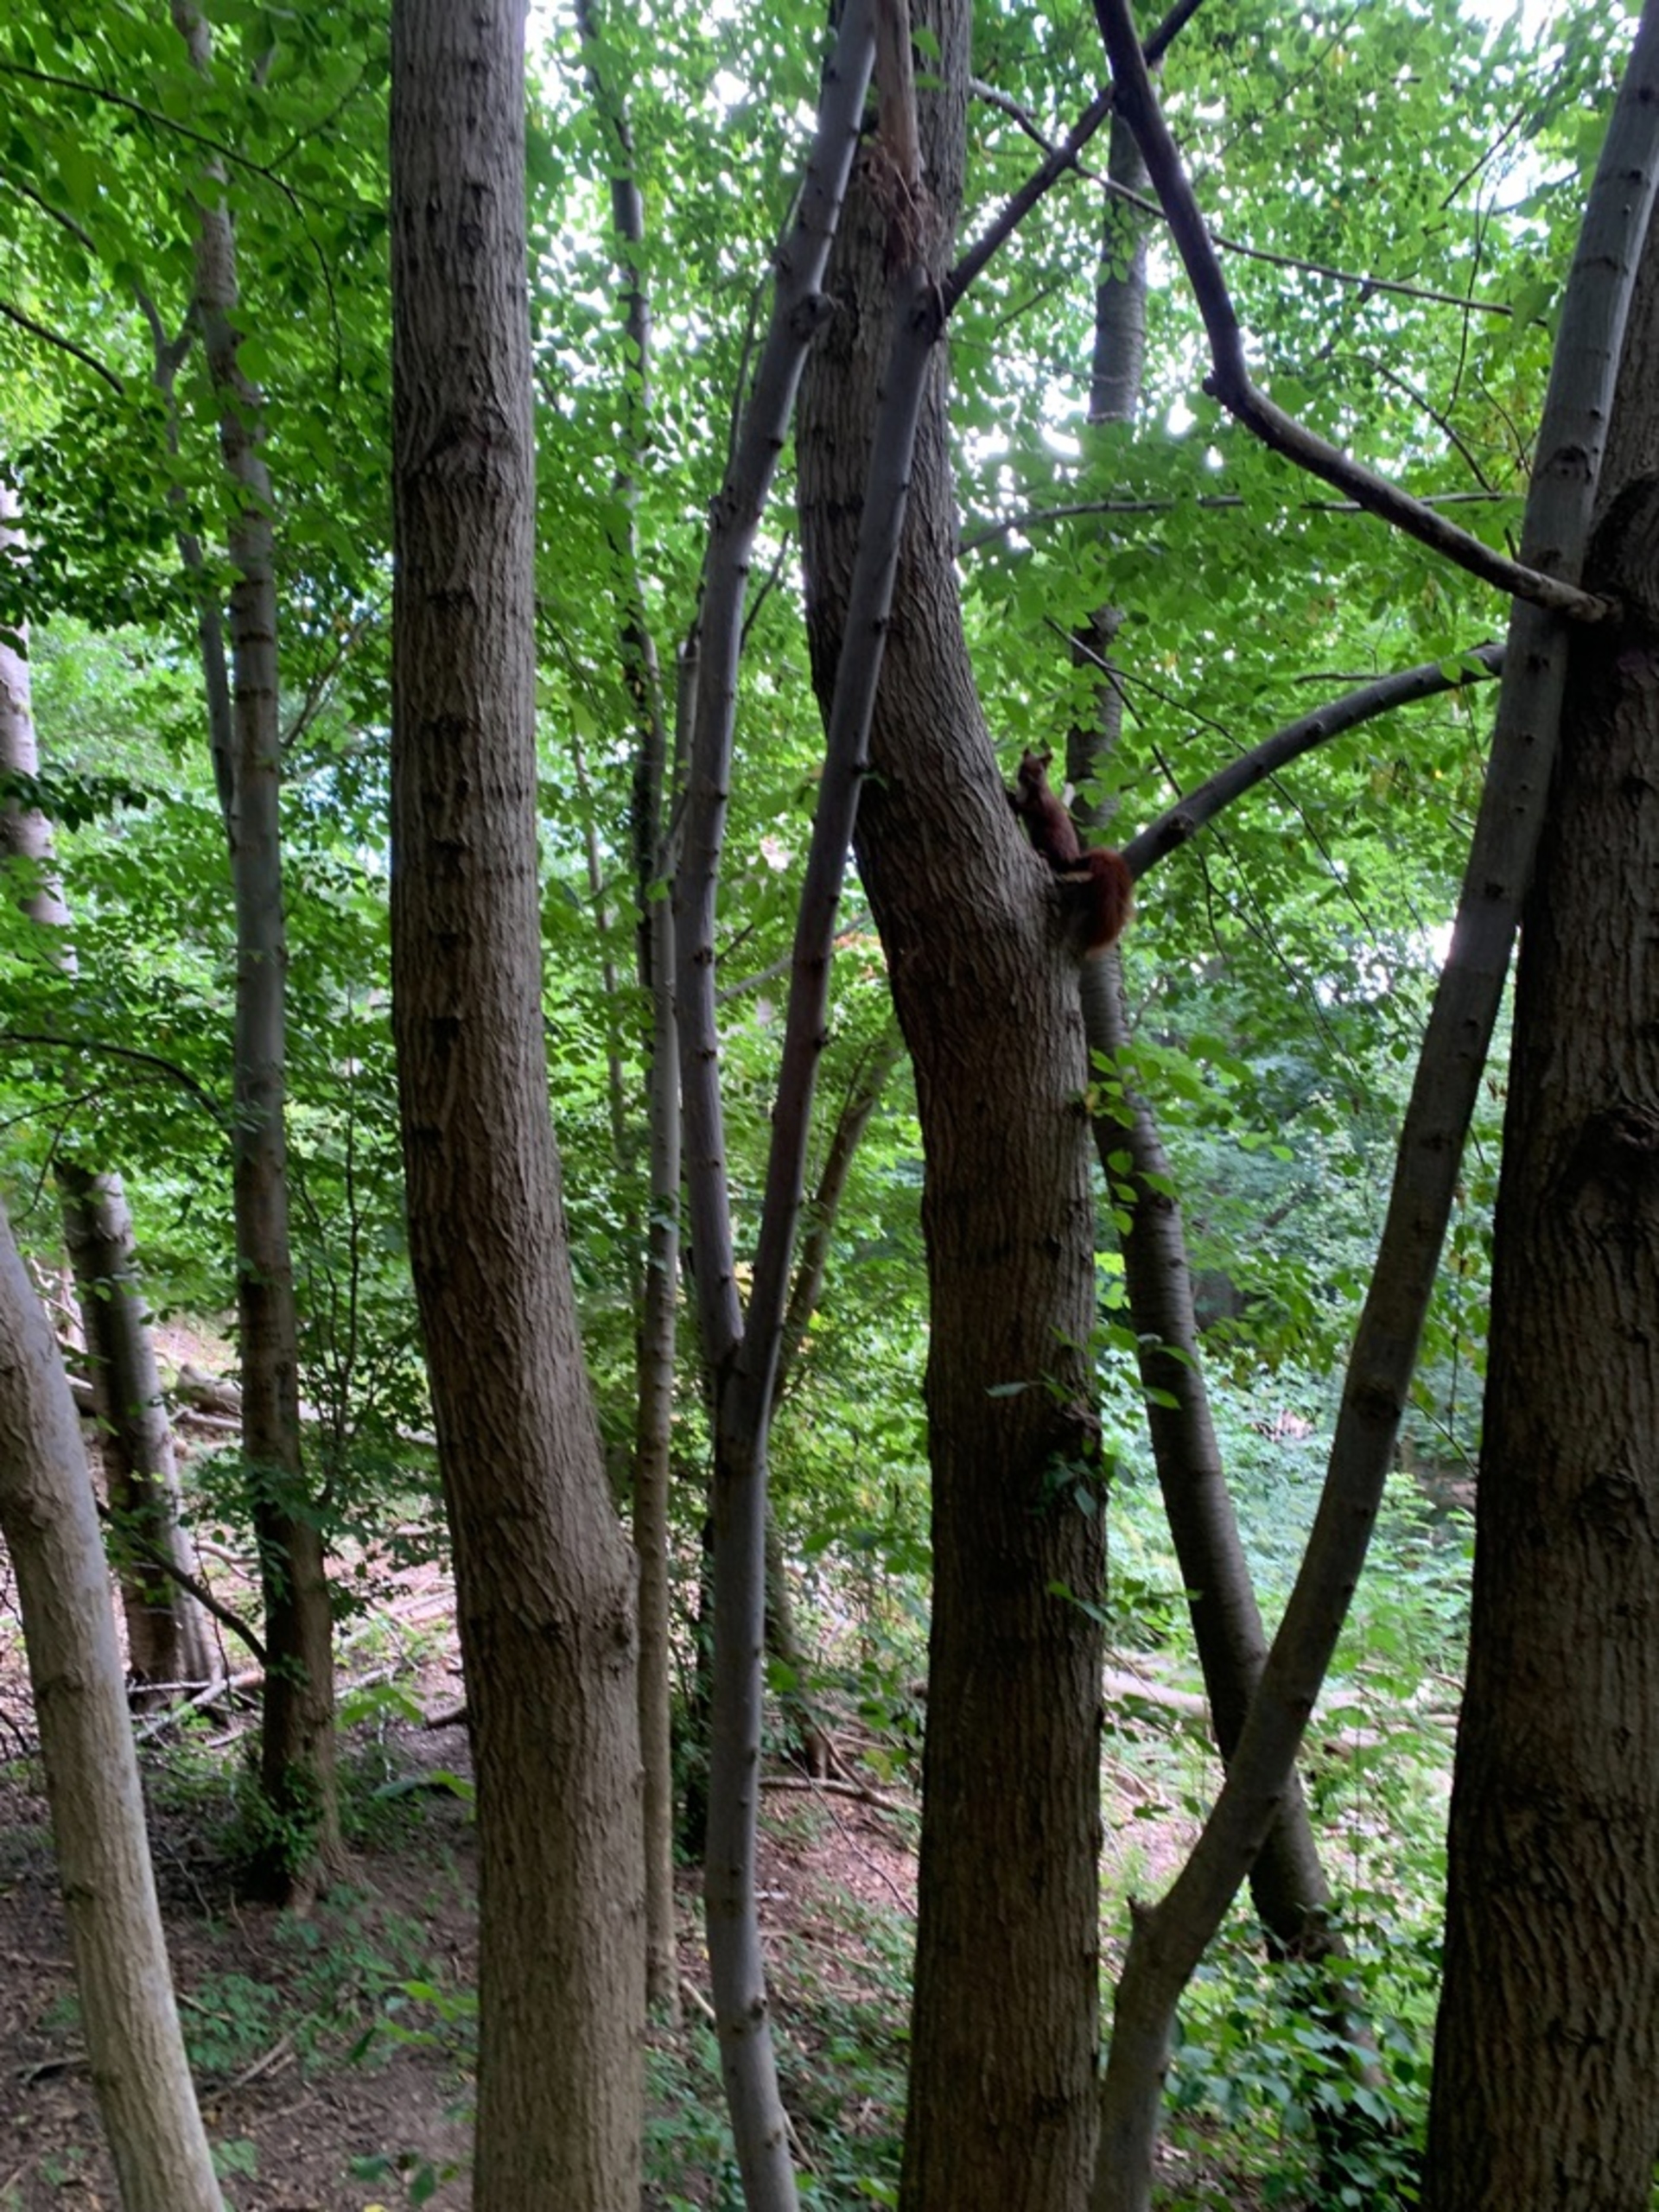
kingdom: Animalia
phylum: Chordata
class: Mammalia
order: Rodentia
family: Sciuridae
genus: Sciurus
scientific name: Sciurus vulgaris
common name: Egern
